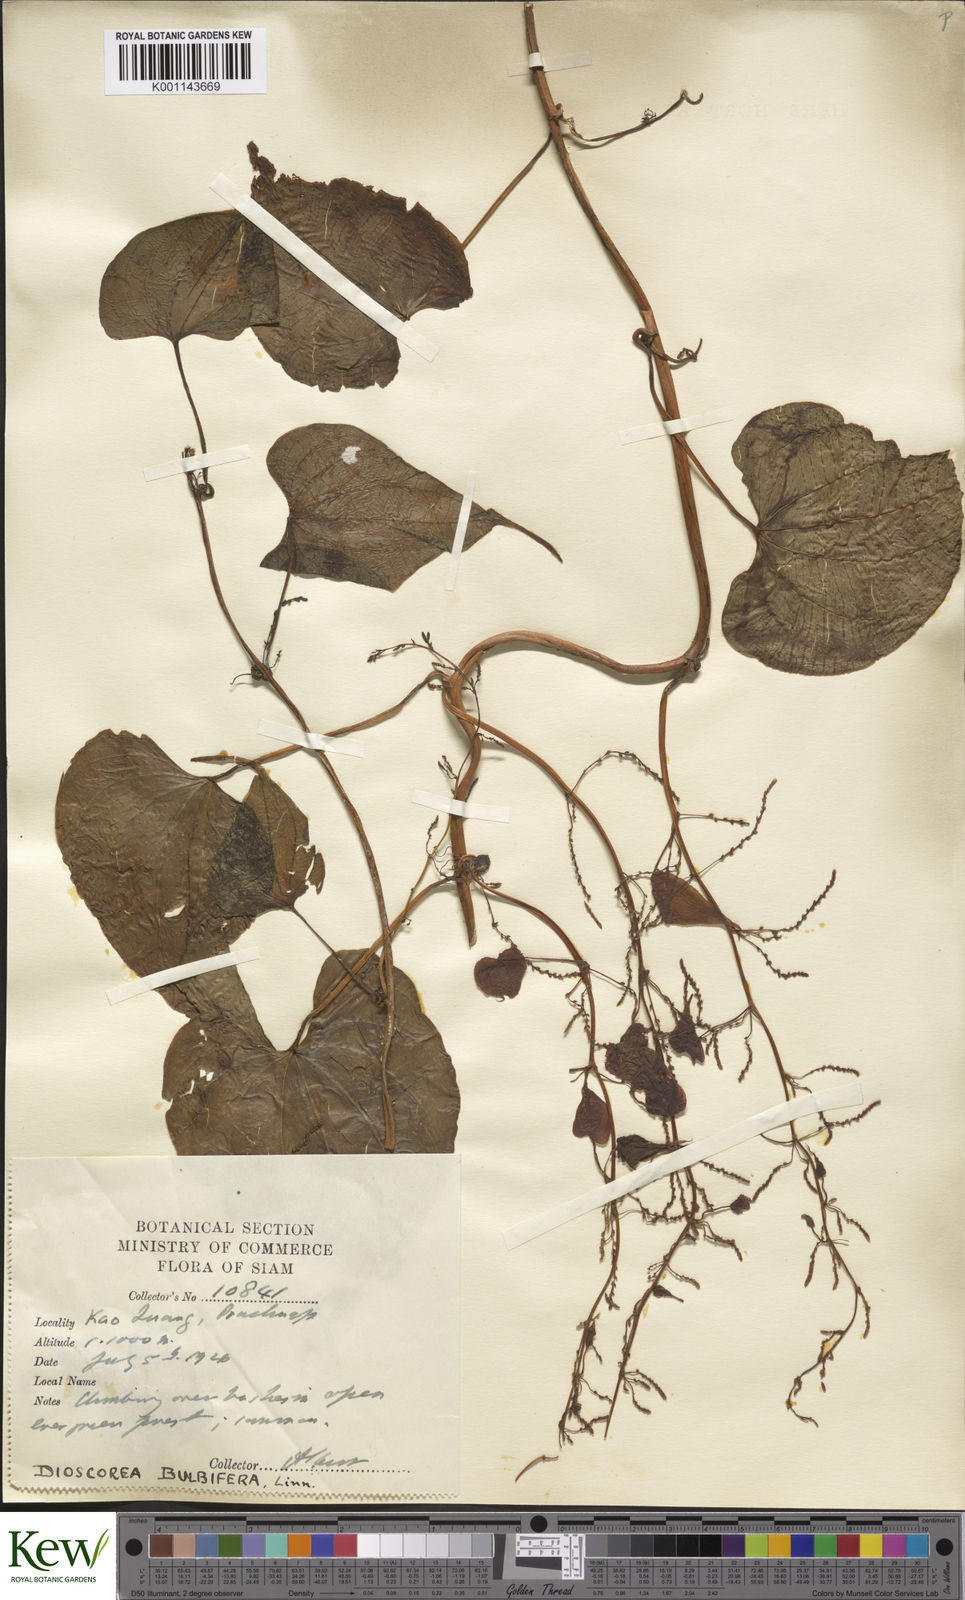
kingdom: Plantae
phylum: Tracheophyta
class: Liliopsida
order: Dioscoreales
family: Dioscoreaceae
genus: Dioscorea
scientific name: Dioscorea bulbifera
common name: Air yam
